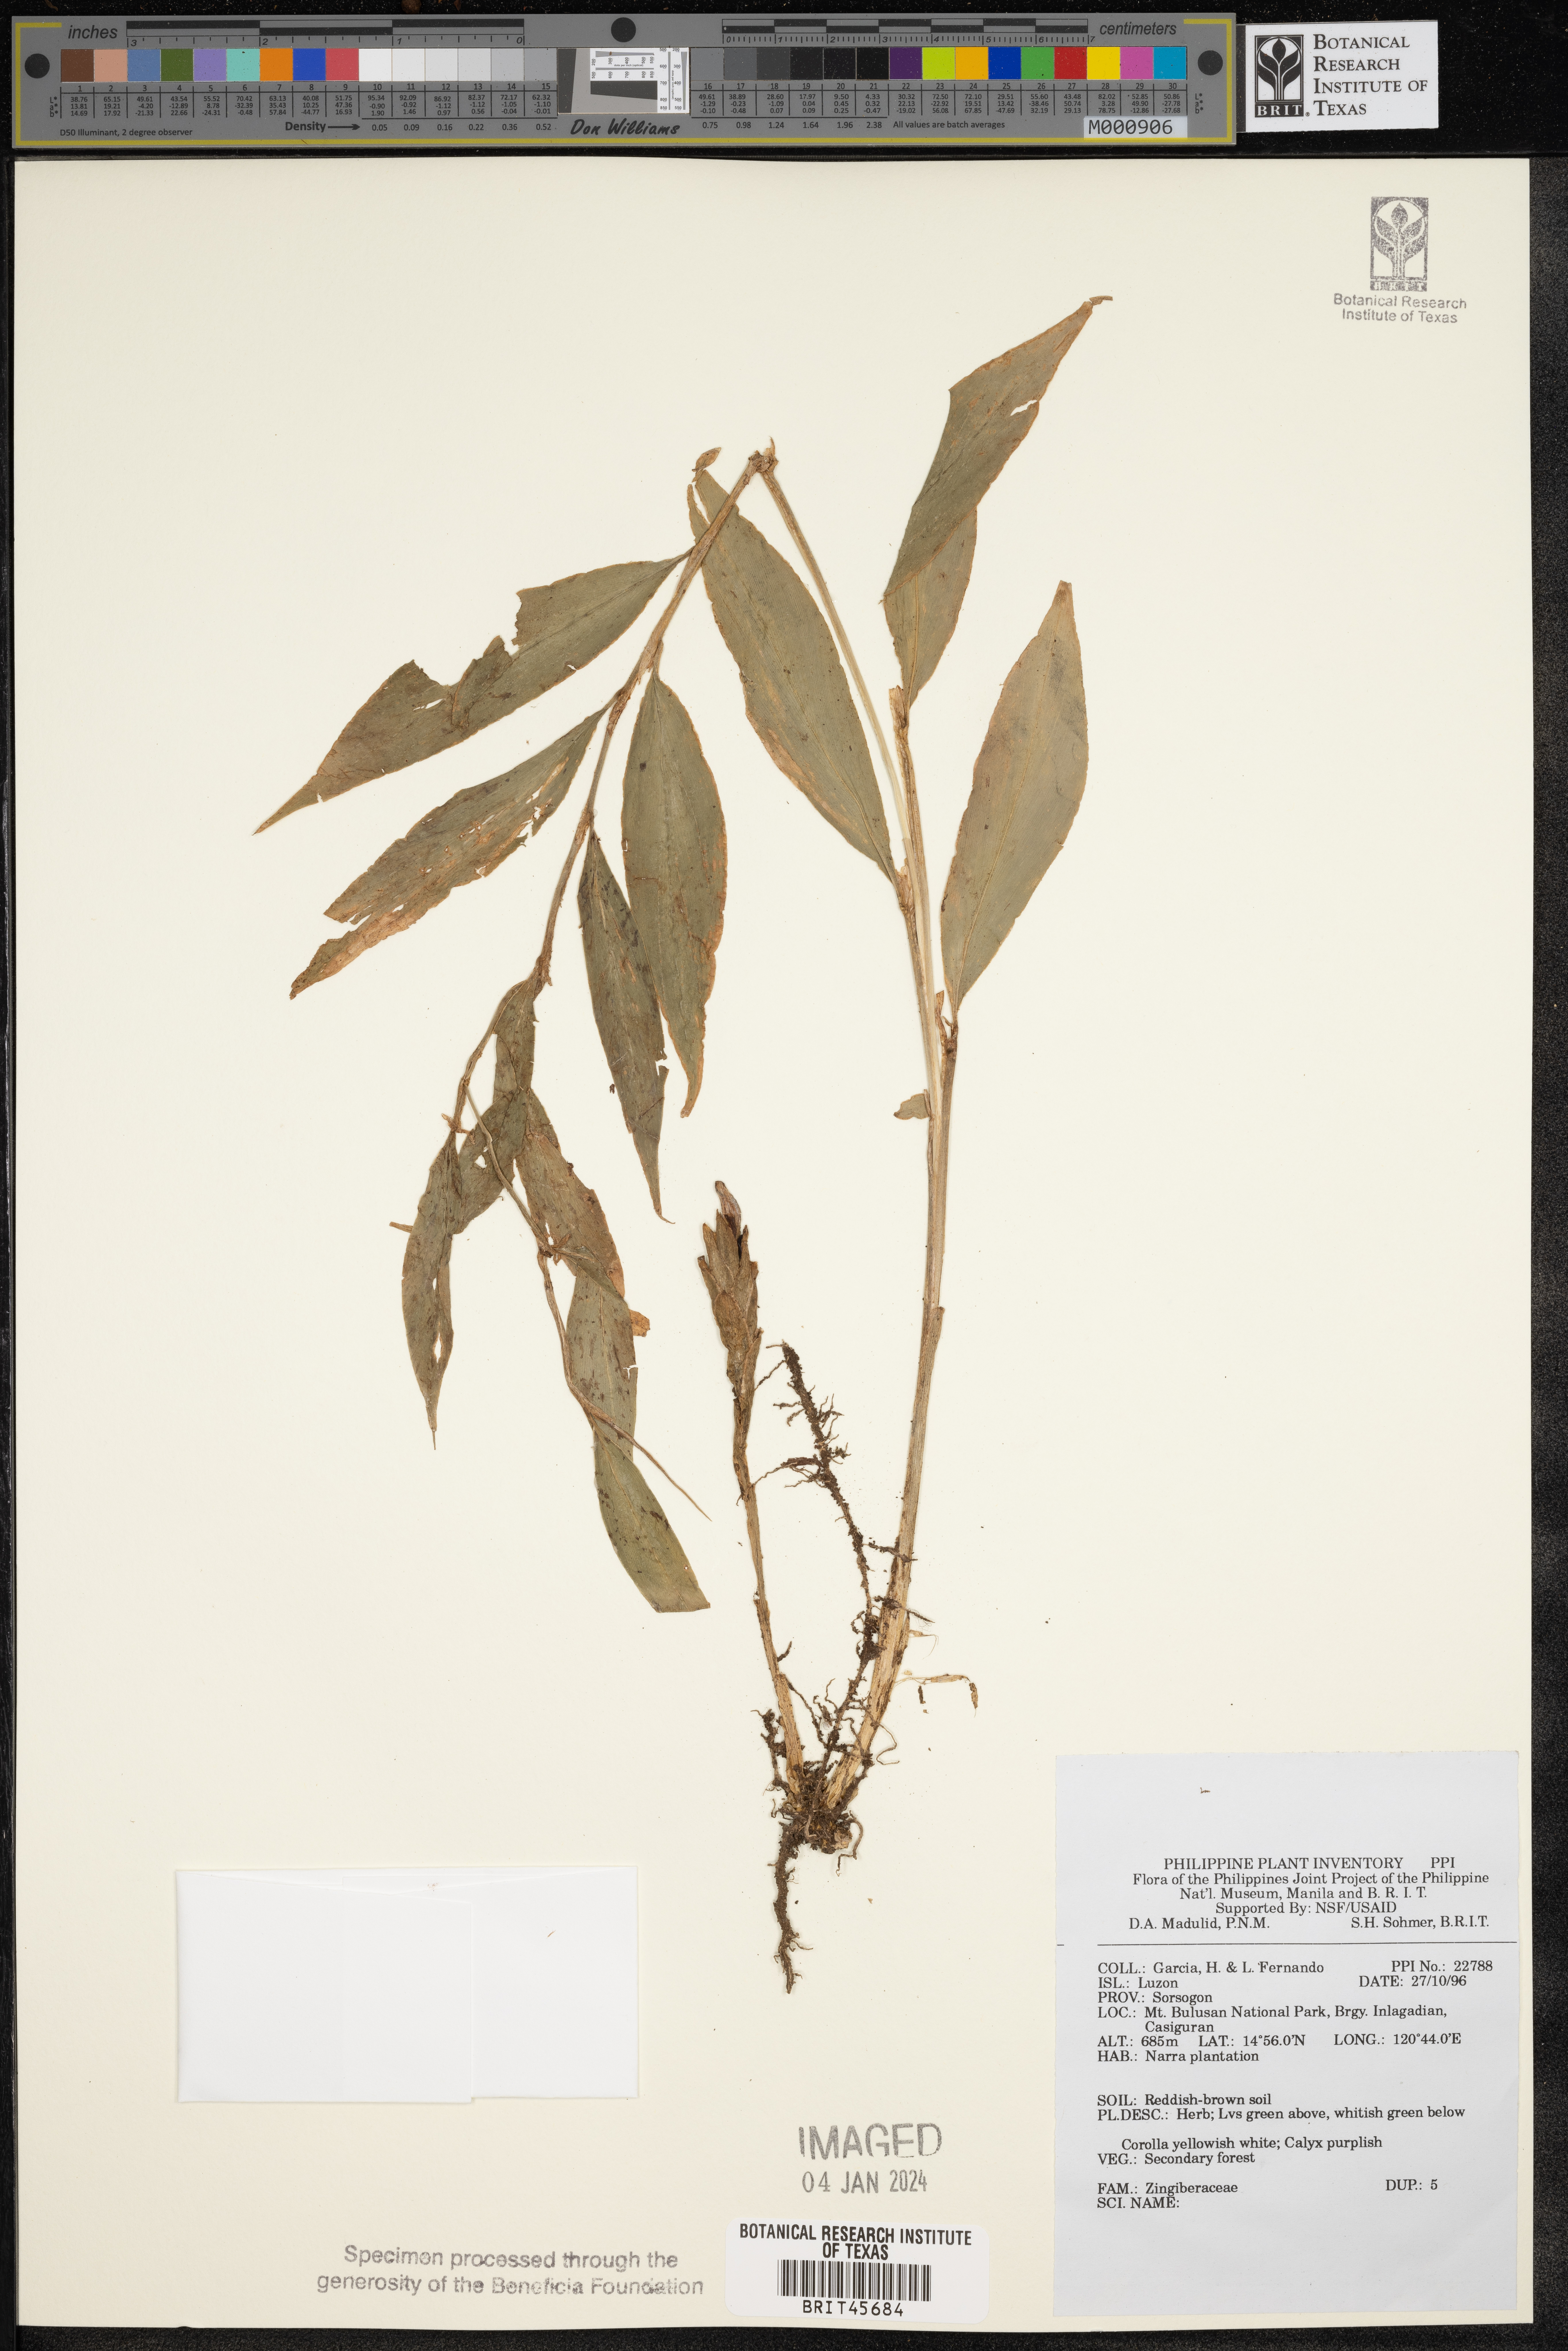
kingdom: Plantae
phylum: Tracheophyta
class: Liliopsida
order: Zingiberales
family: Zingiberaceae
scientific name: Zingiberaceae
